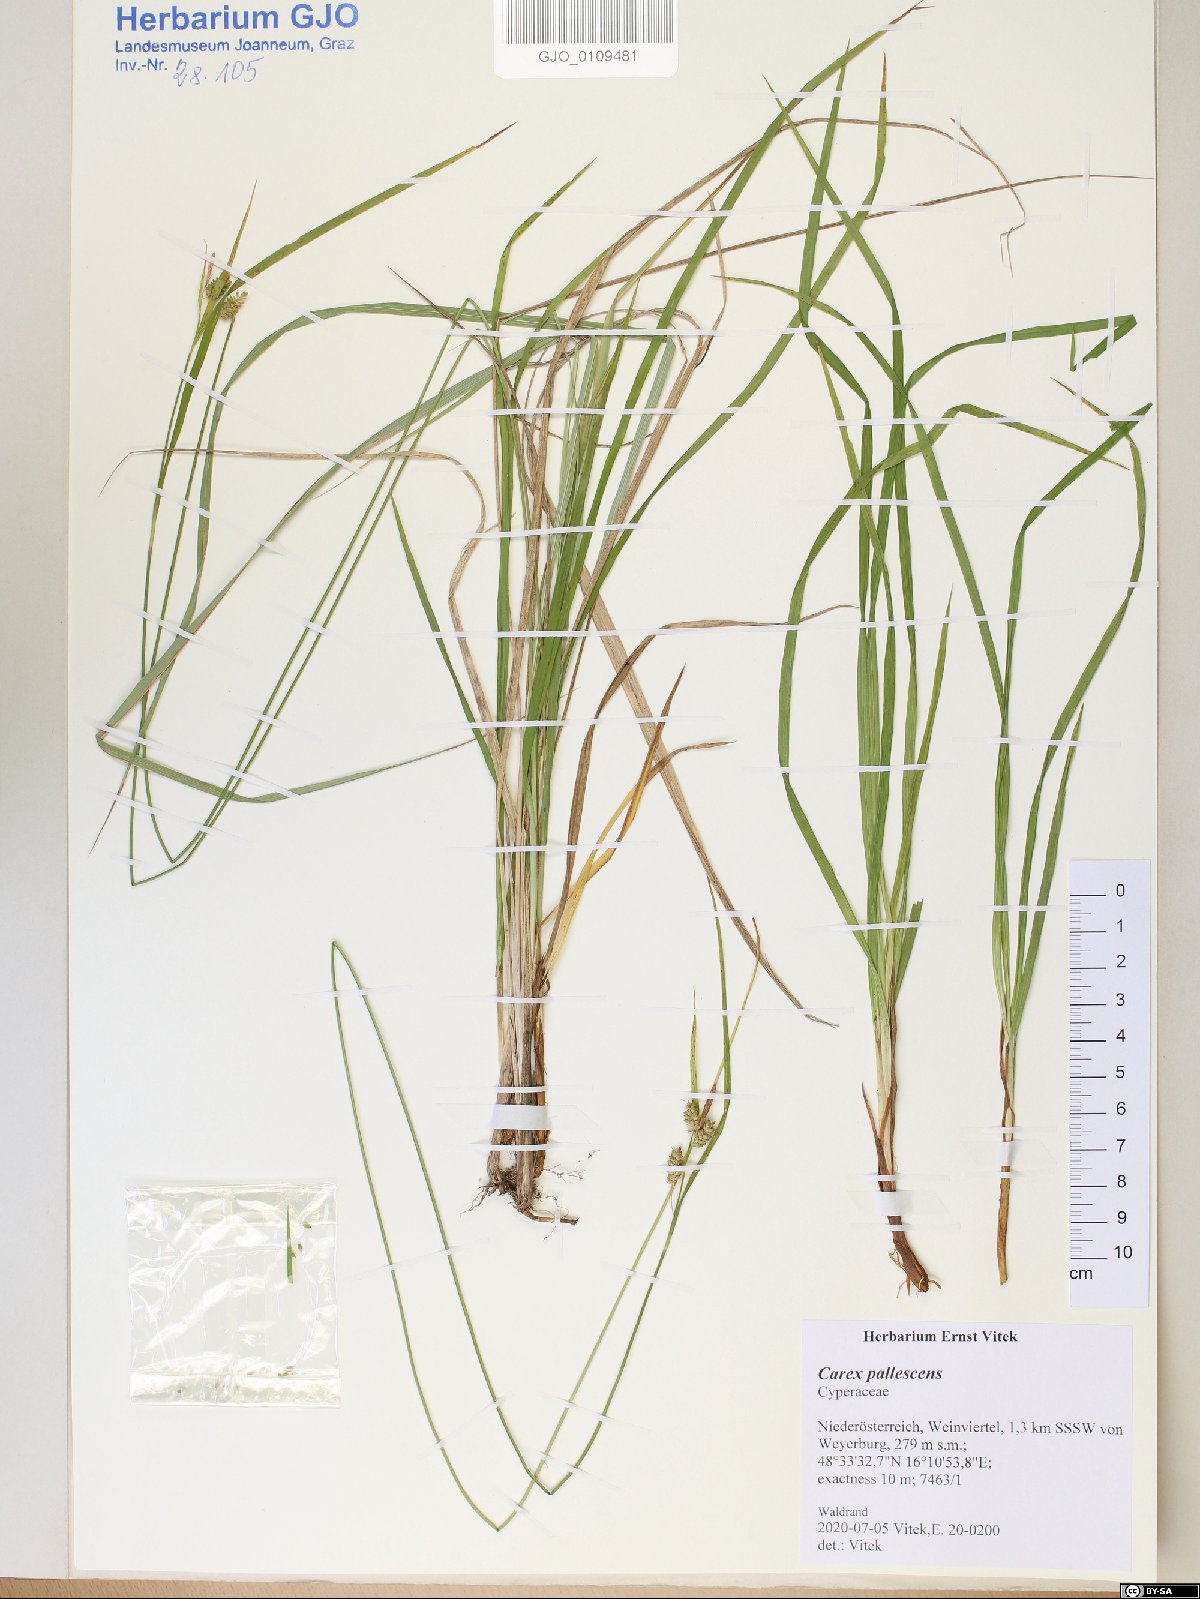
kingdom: Plantae
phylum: Tracheophyta
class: Magnoliopsida
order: Caryophyllales
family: Cactaceae
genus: Pelecyphora
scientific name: Pelecyphora emskoetteriana
